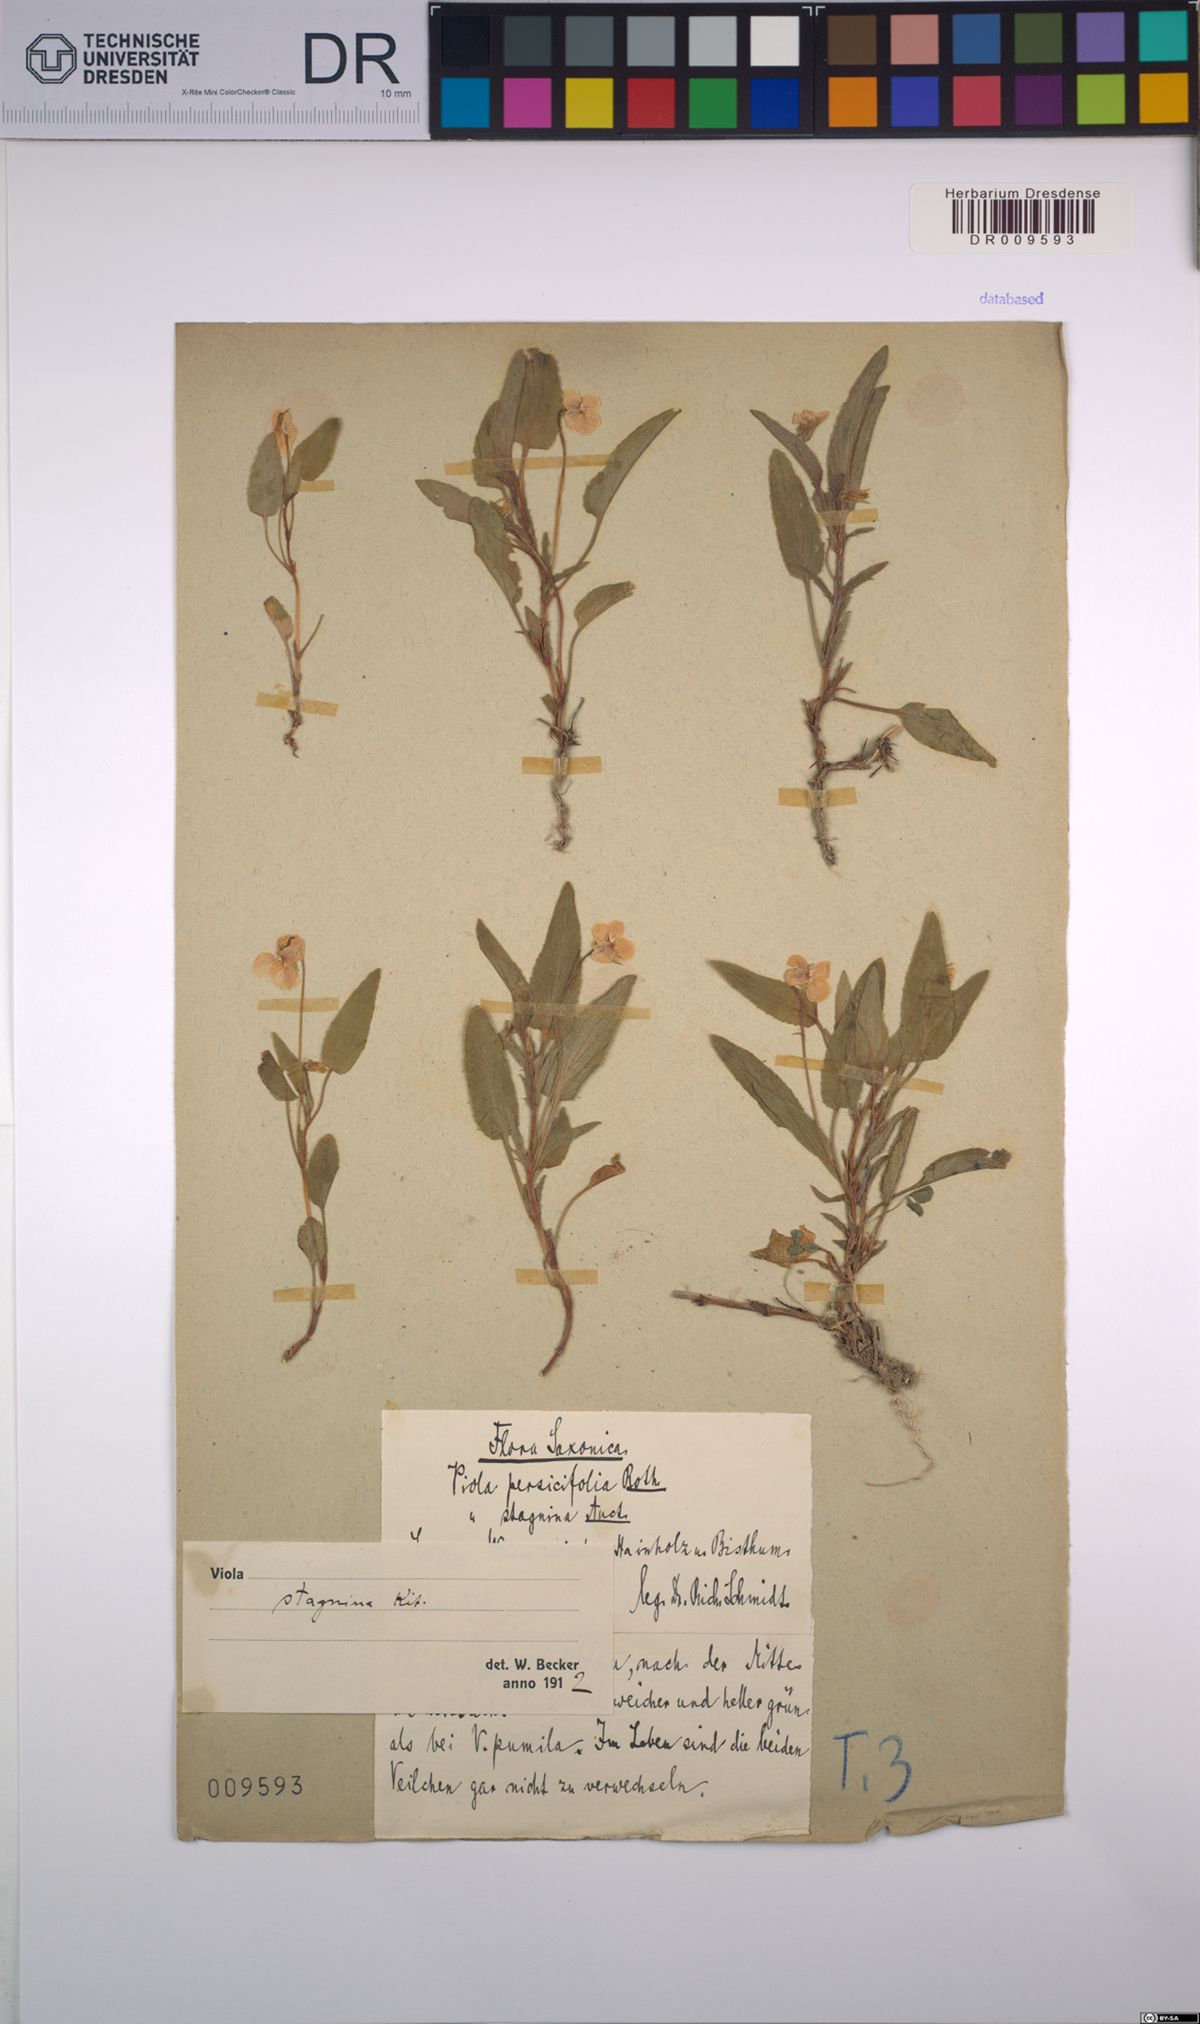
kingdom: Plantae
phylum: Tracheophyta
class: Magnoliopsida
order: Malpighiales
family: Violaceae
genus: Viola
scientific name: Viola stagnina
